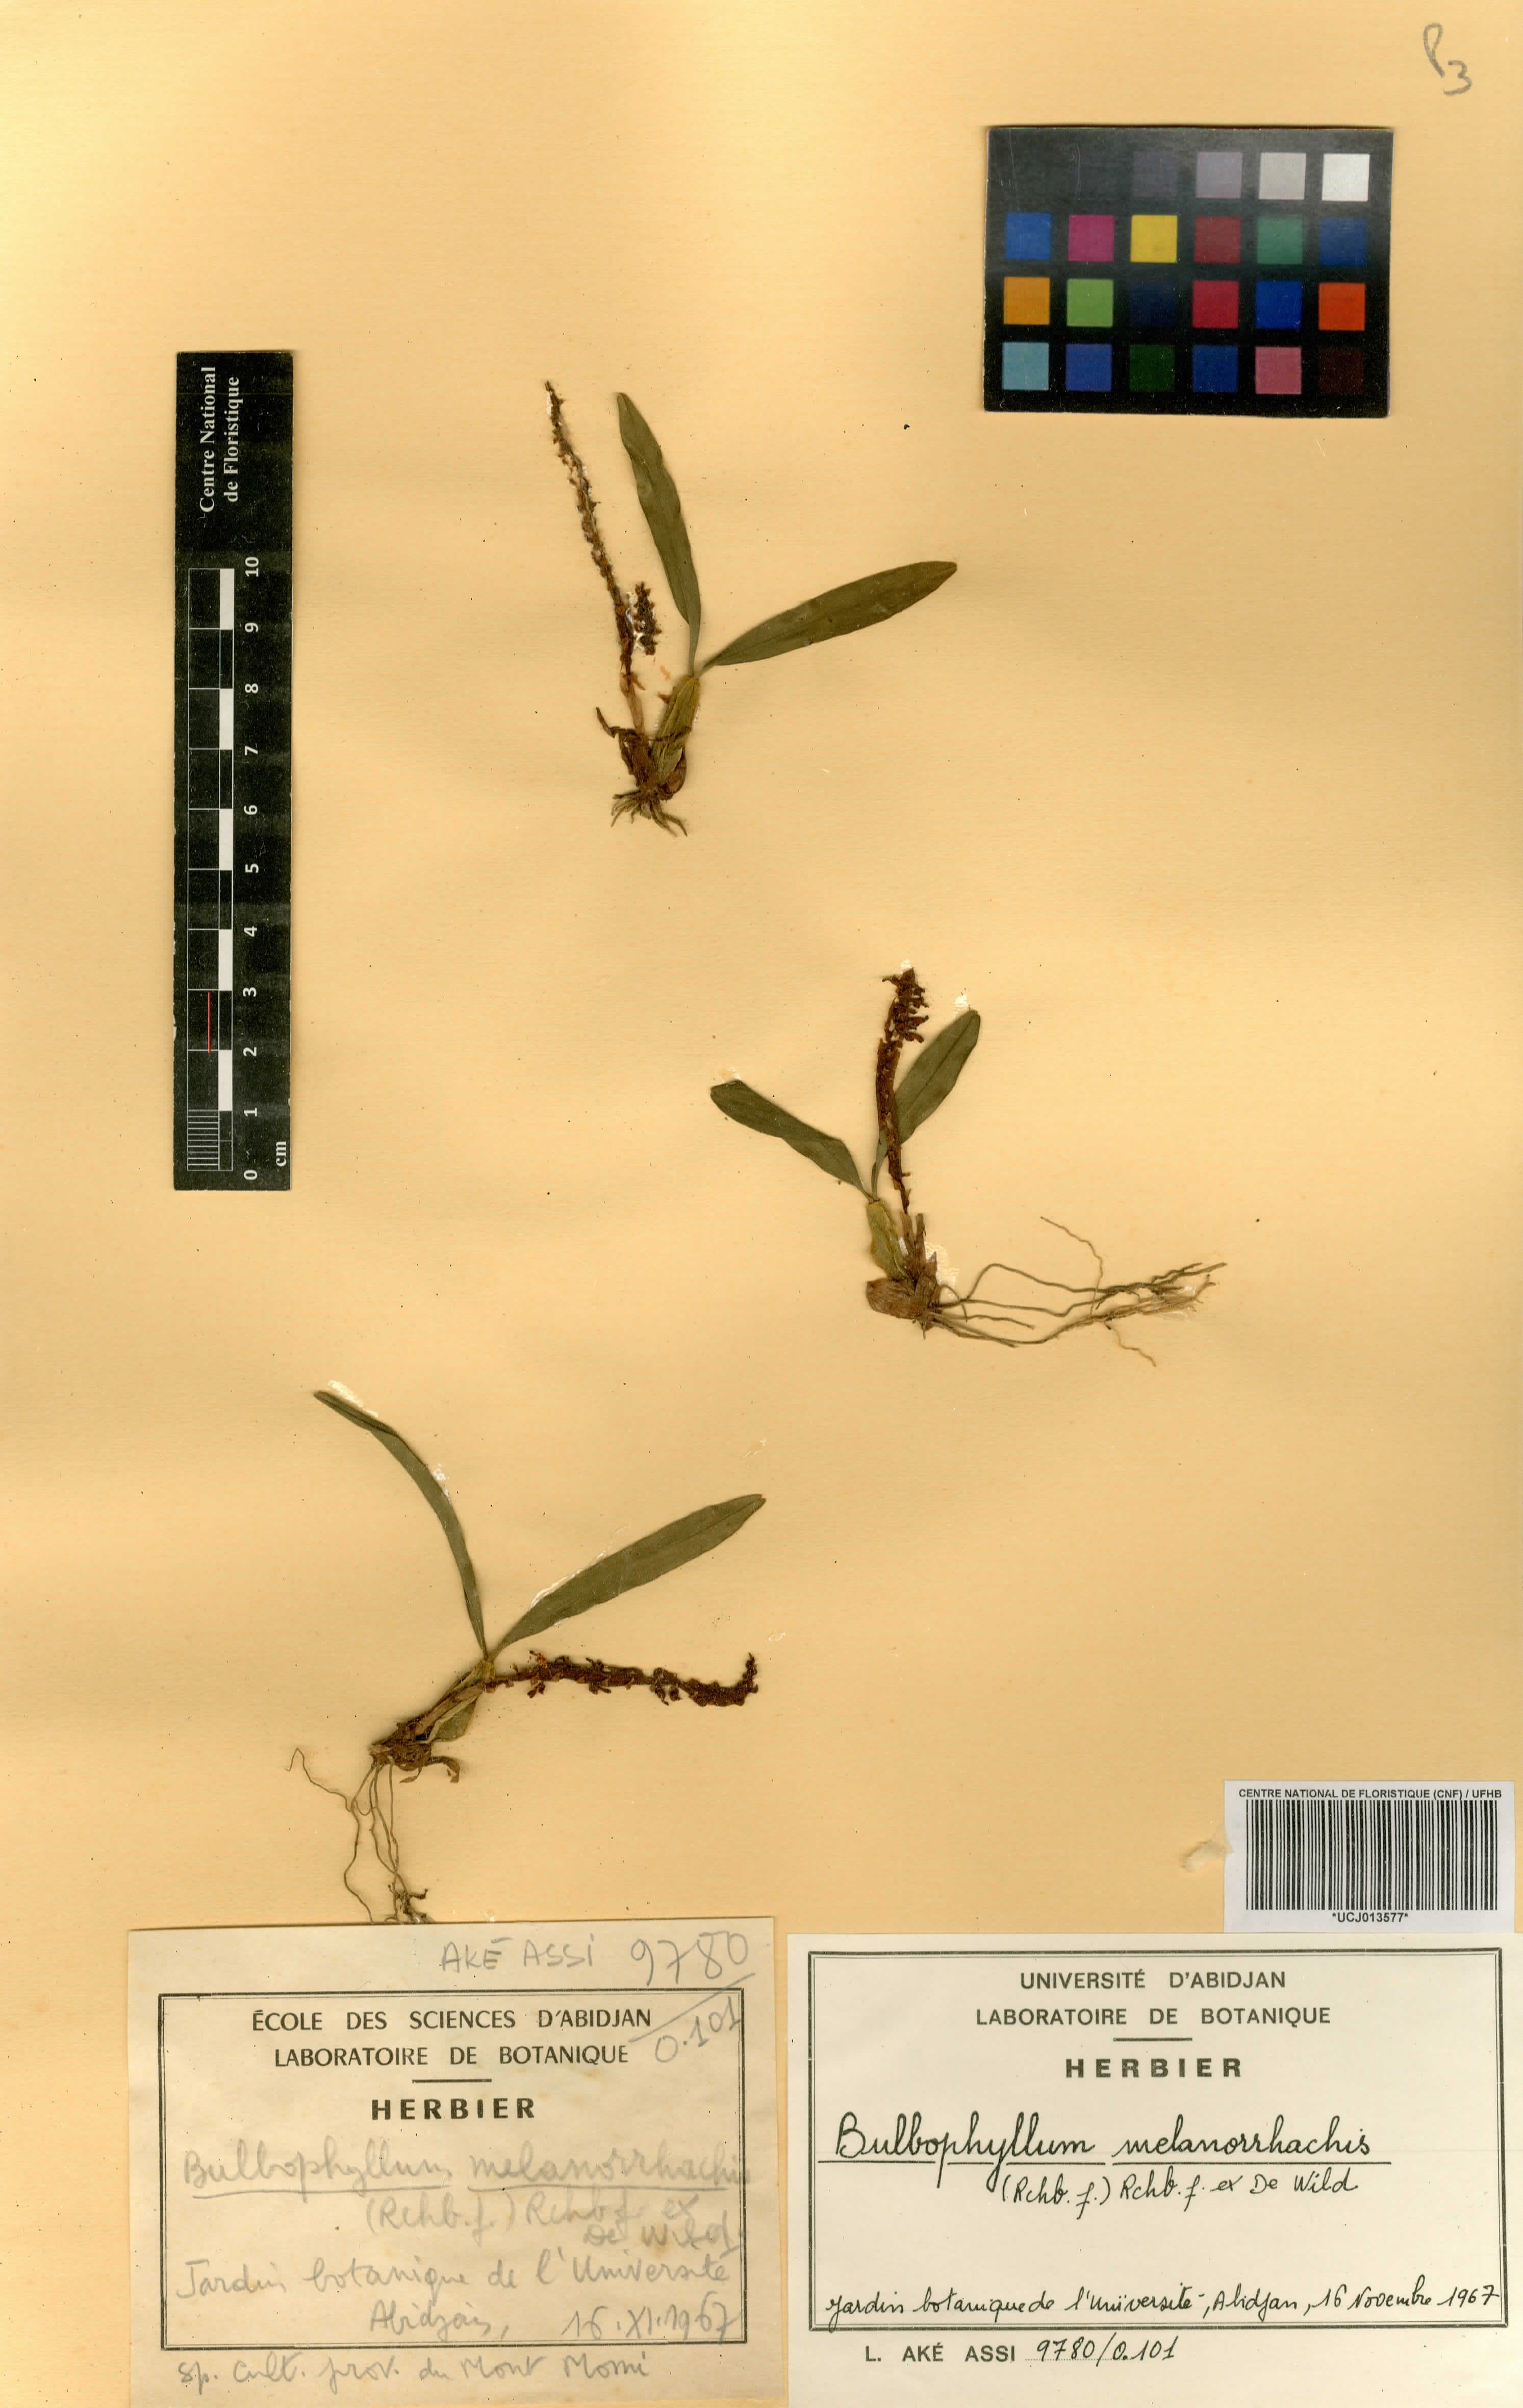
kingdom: Plantae
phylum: Tracheophyta
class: Liliopsida
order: Asparagales
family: Orchidaceae
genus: Bulbophyllum
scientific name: Bulbophyllum falcatum
